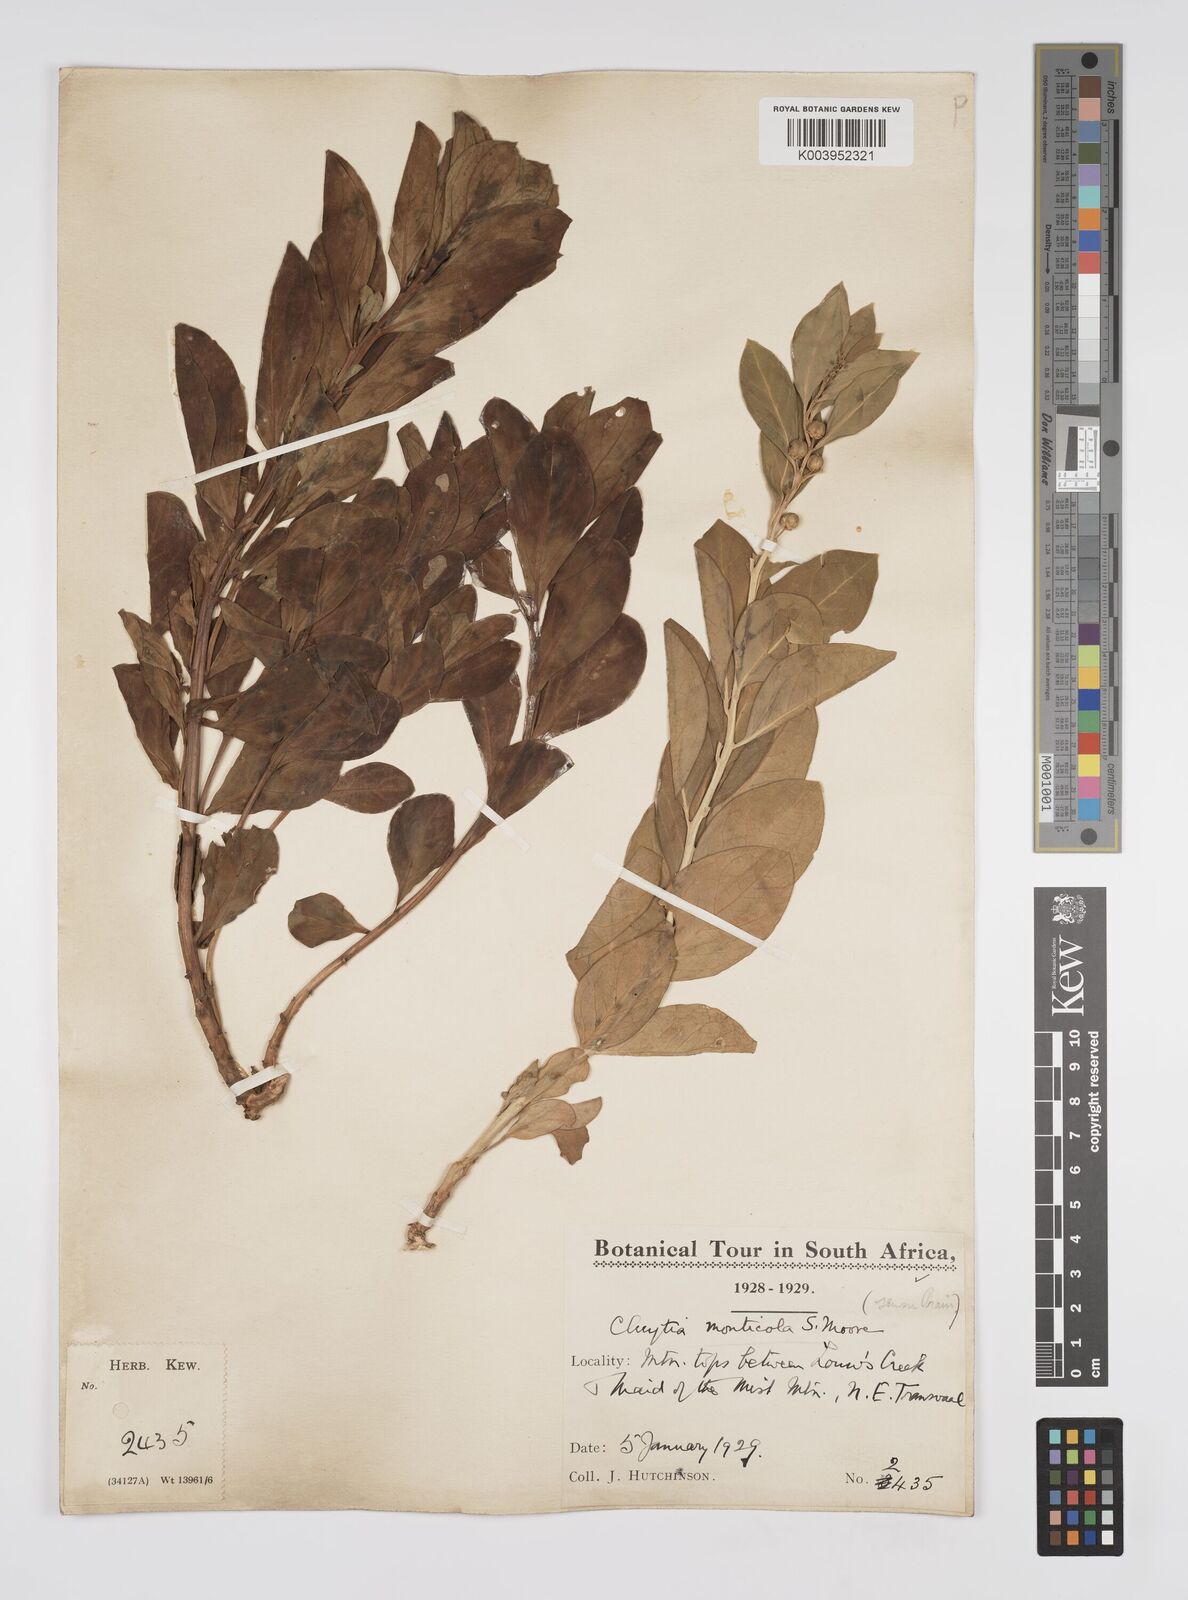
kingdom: Plantae
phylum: Tracheophyta
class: Magnoliopsida
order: Malpighiales
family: Peraceae
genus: Clutia
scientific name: Clutia
